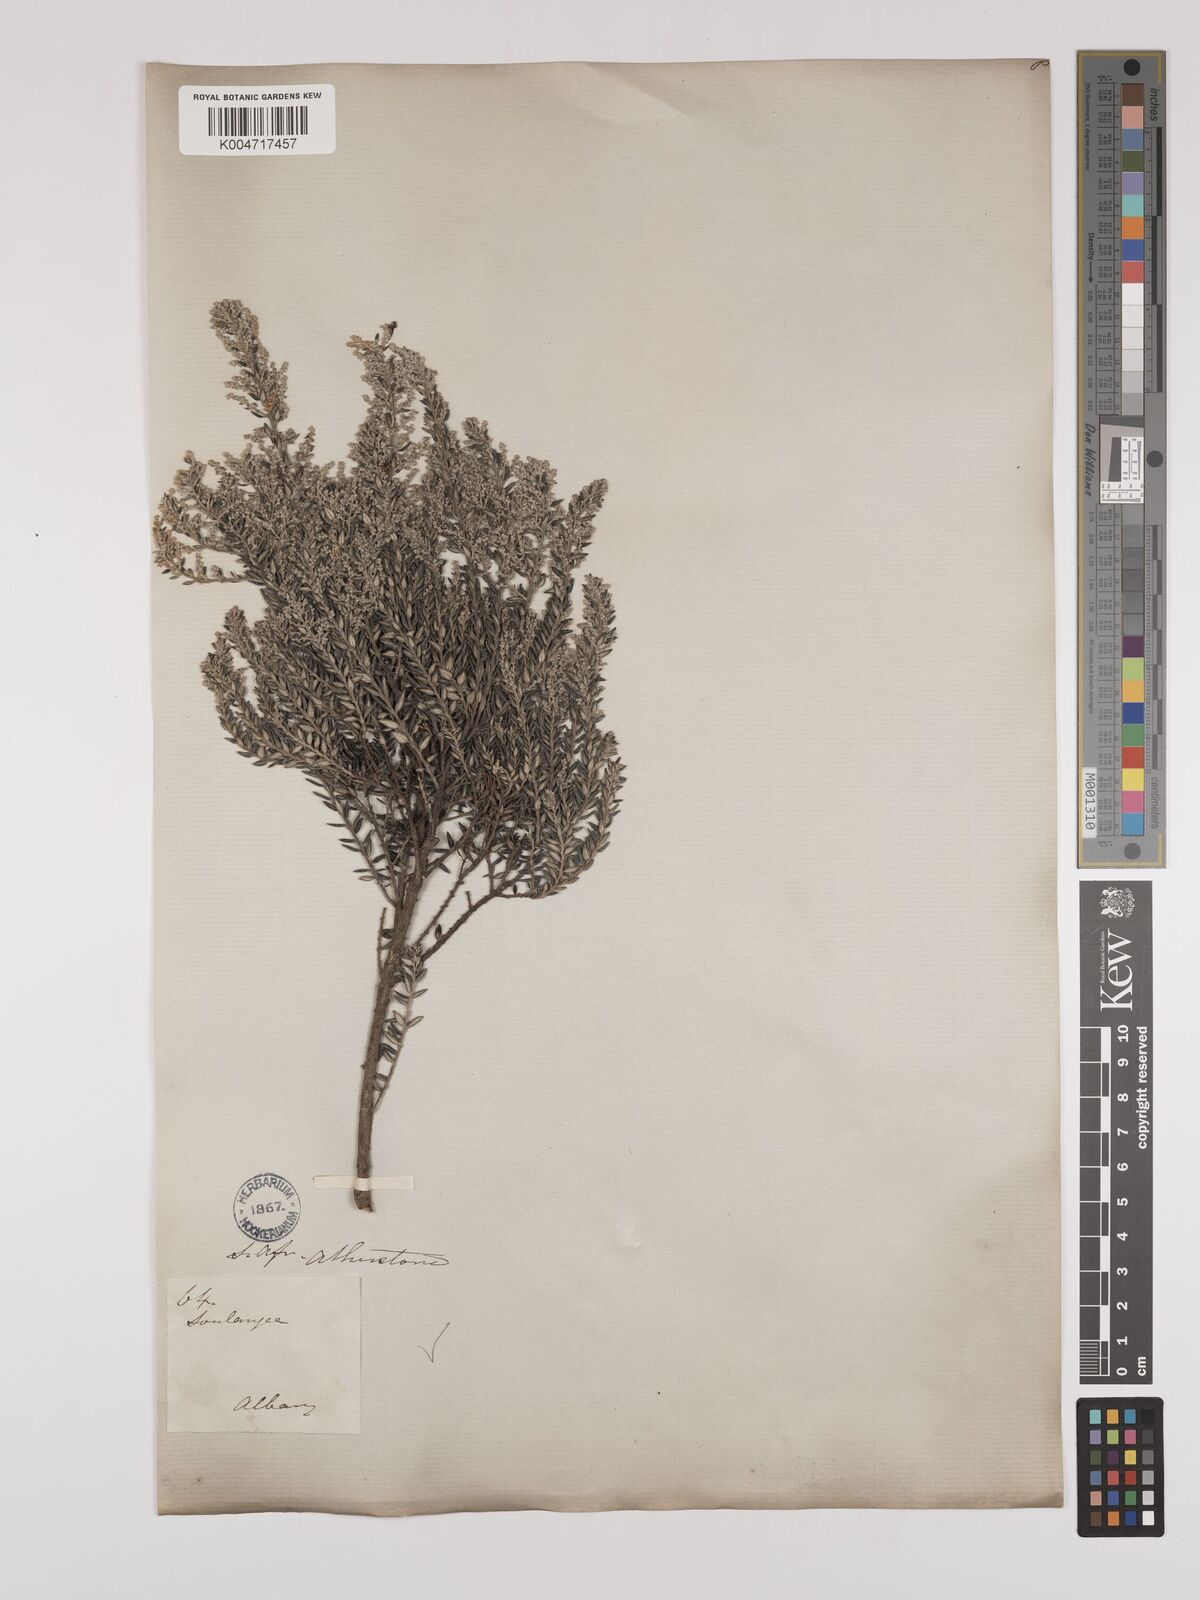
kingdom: Plantae
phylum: Tracheophyta
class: Magnoliopsida
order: Rosales
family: Rhamnaceae
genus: Phylica
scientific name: Phylica paniculata
